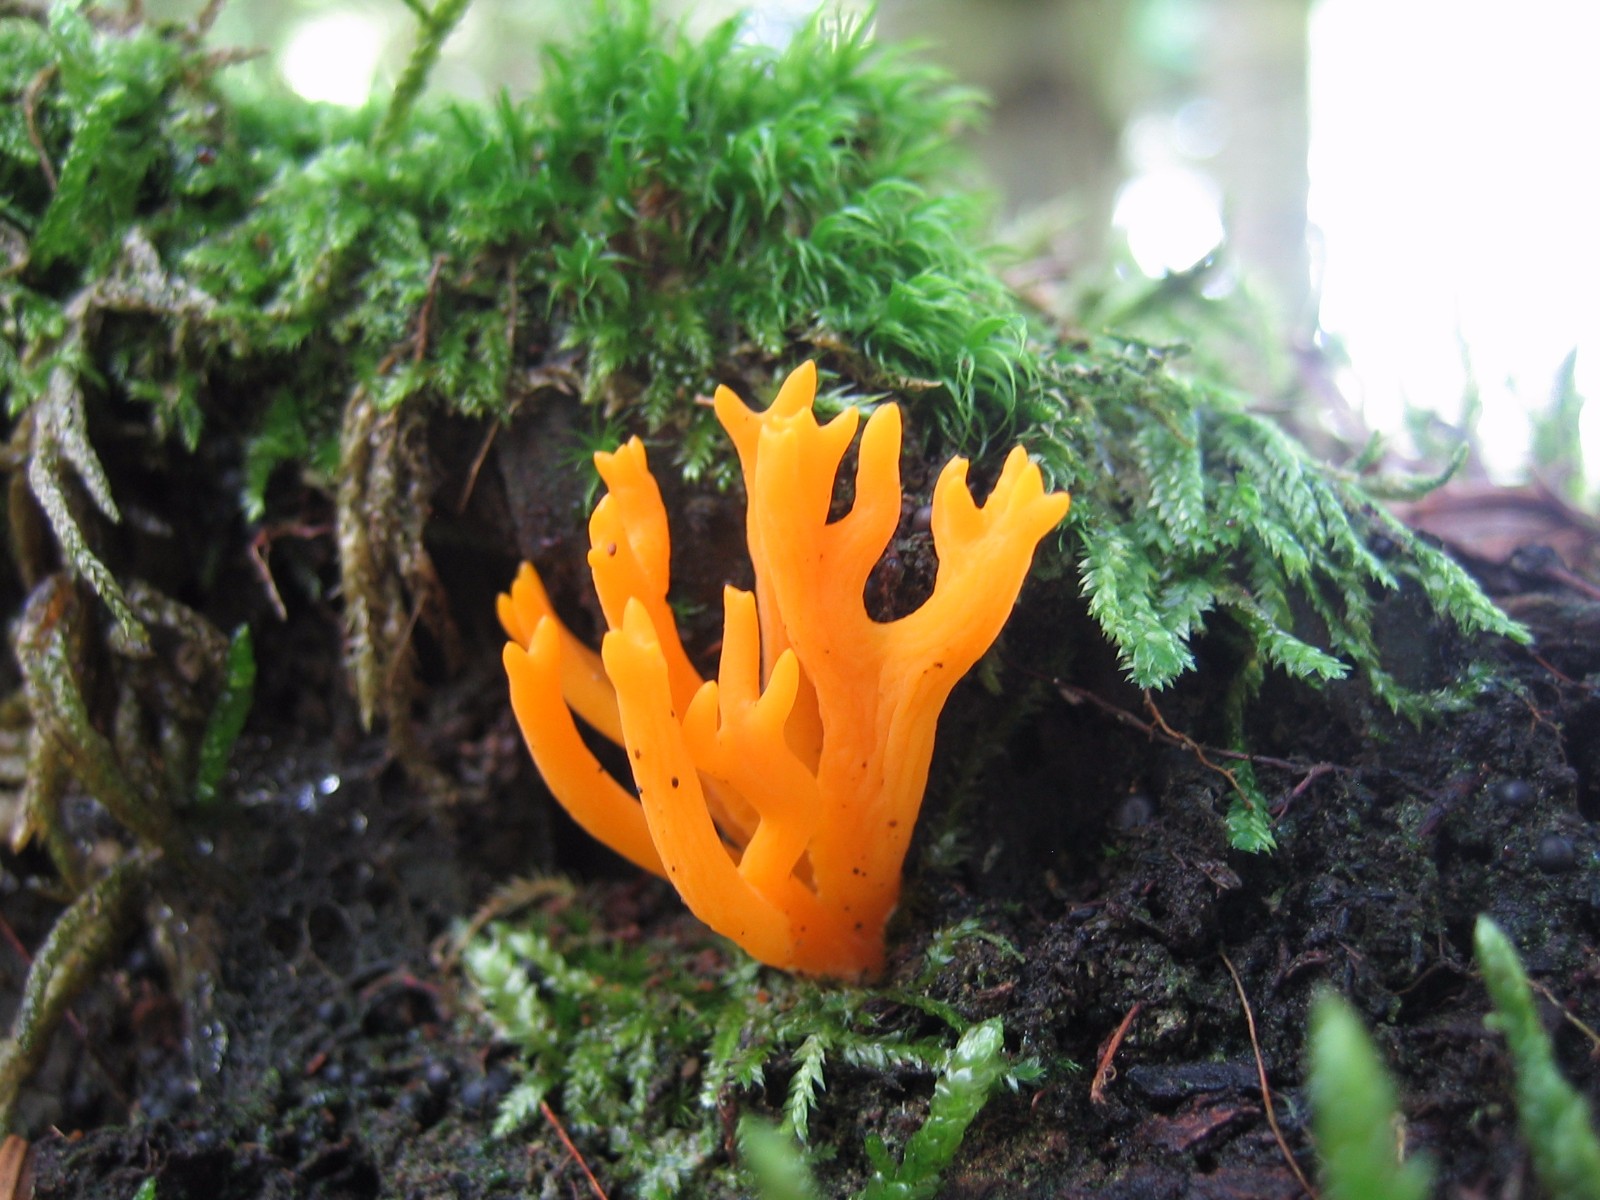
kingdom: Fungi
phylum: Basidiomycota
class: Dacrymycetes
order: Dacrymycetales
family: Dacrymycetaceae
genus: Calocera
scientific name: Calocera viscosa
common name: almindelig guldgaffel
